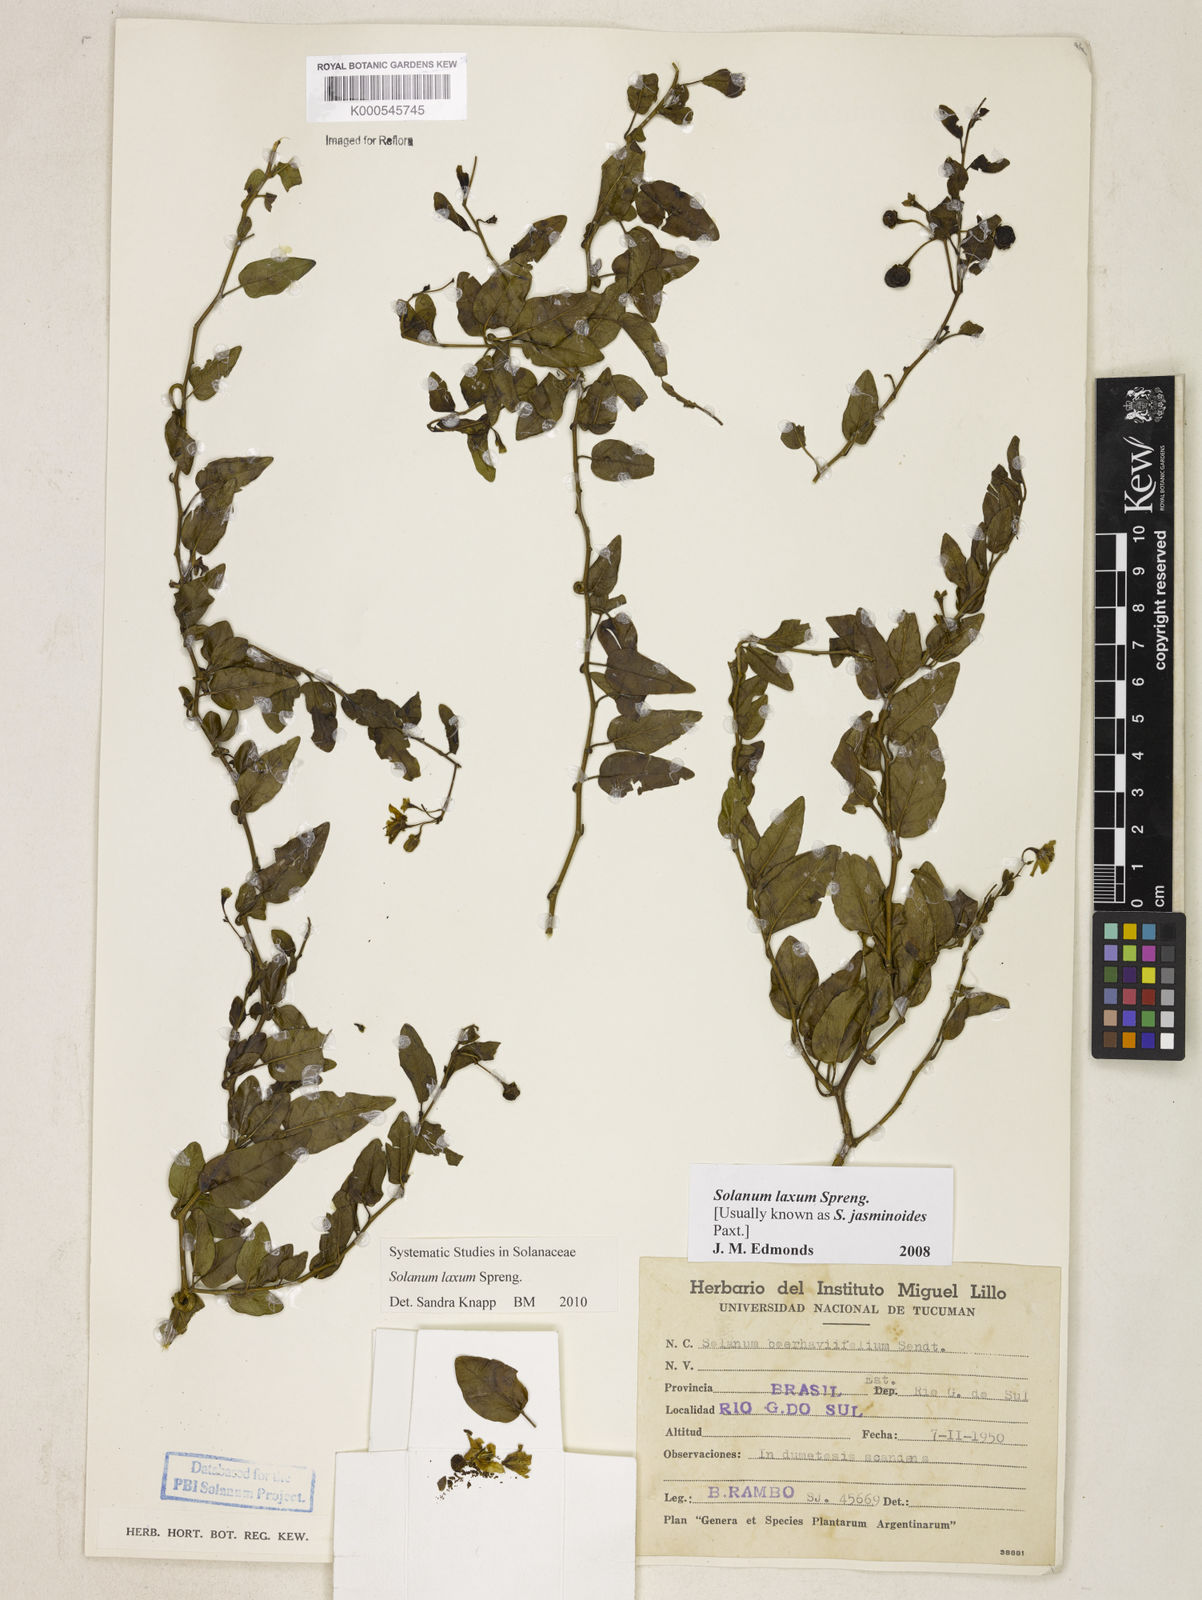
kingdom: Plantae
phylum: Tracheophyta
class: Magnoliopsida
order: Solanales
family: Solanaceae
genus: Solanum
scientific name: Solanum laxum
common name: Nightshade
